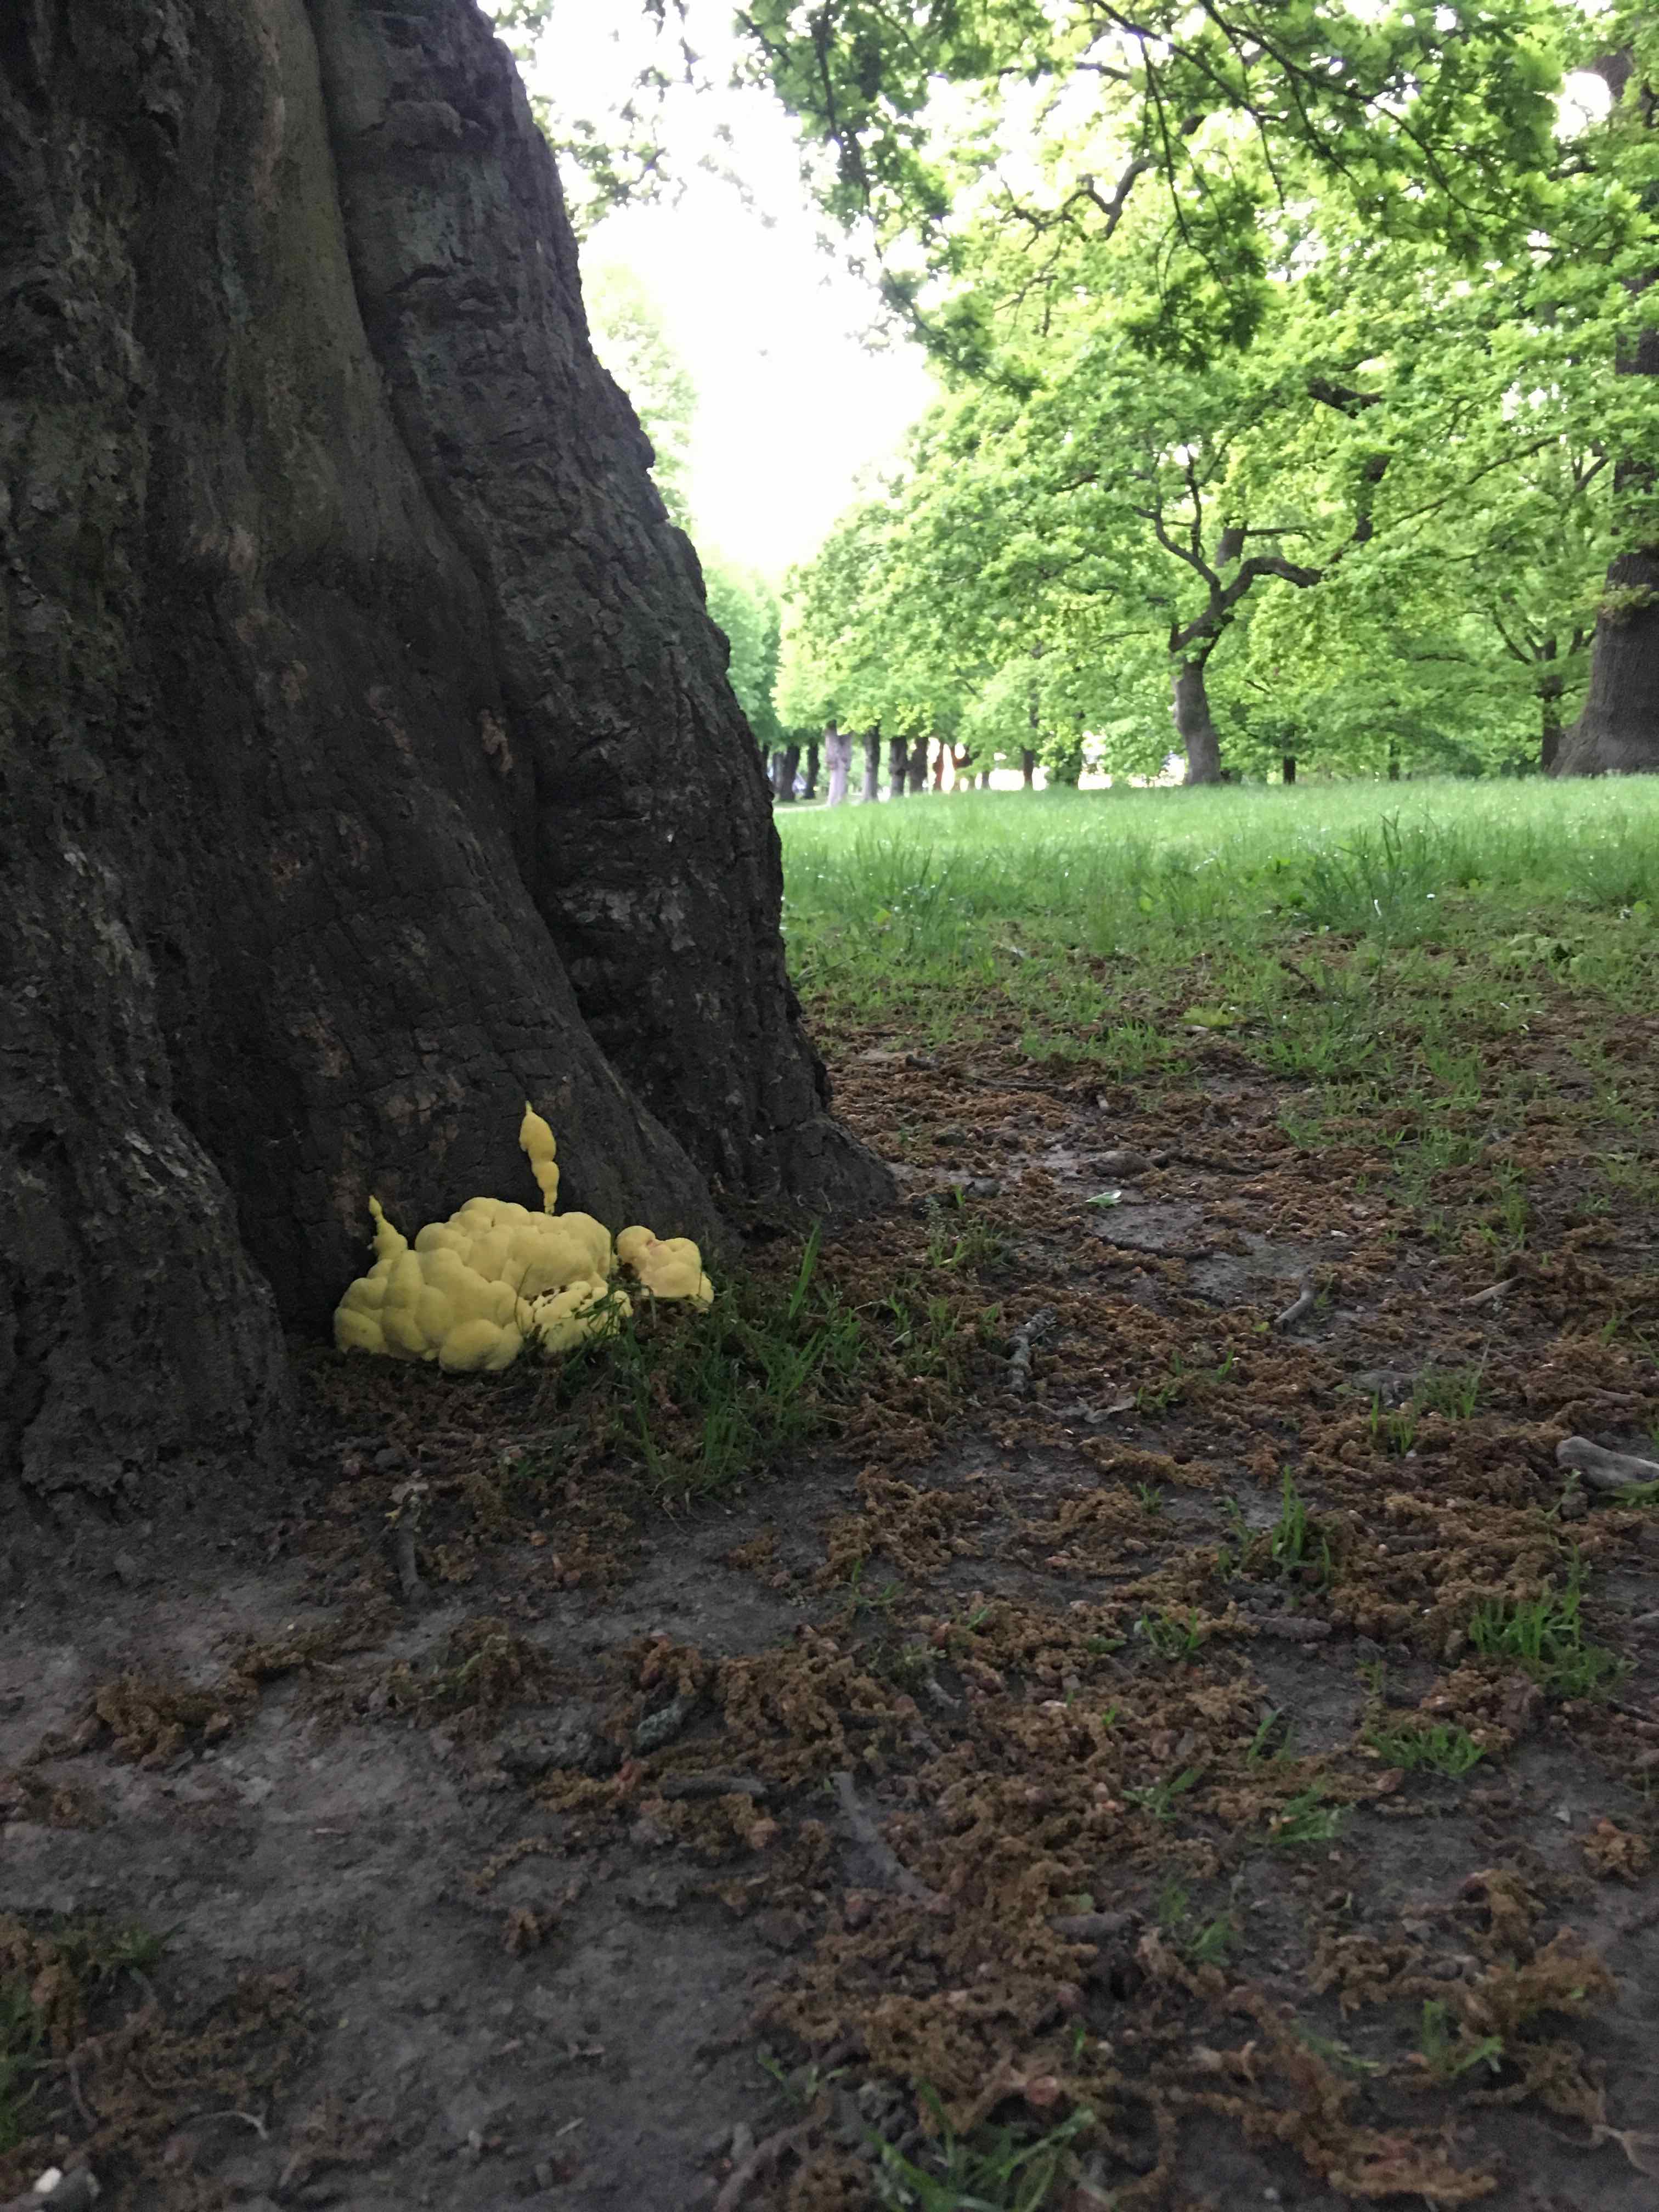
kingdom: Fungi
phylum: Basidiomycota
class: Agaricomycetes
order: Polyporales
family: Laetiporaceae
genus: Laetiporus
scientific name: Laetiporus sulphureus
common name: svovlporesvamp
